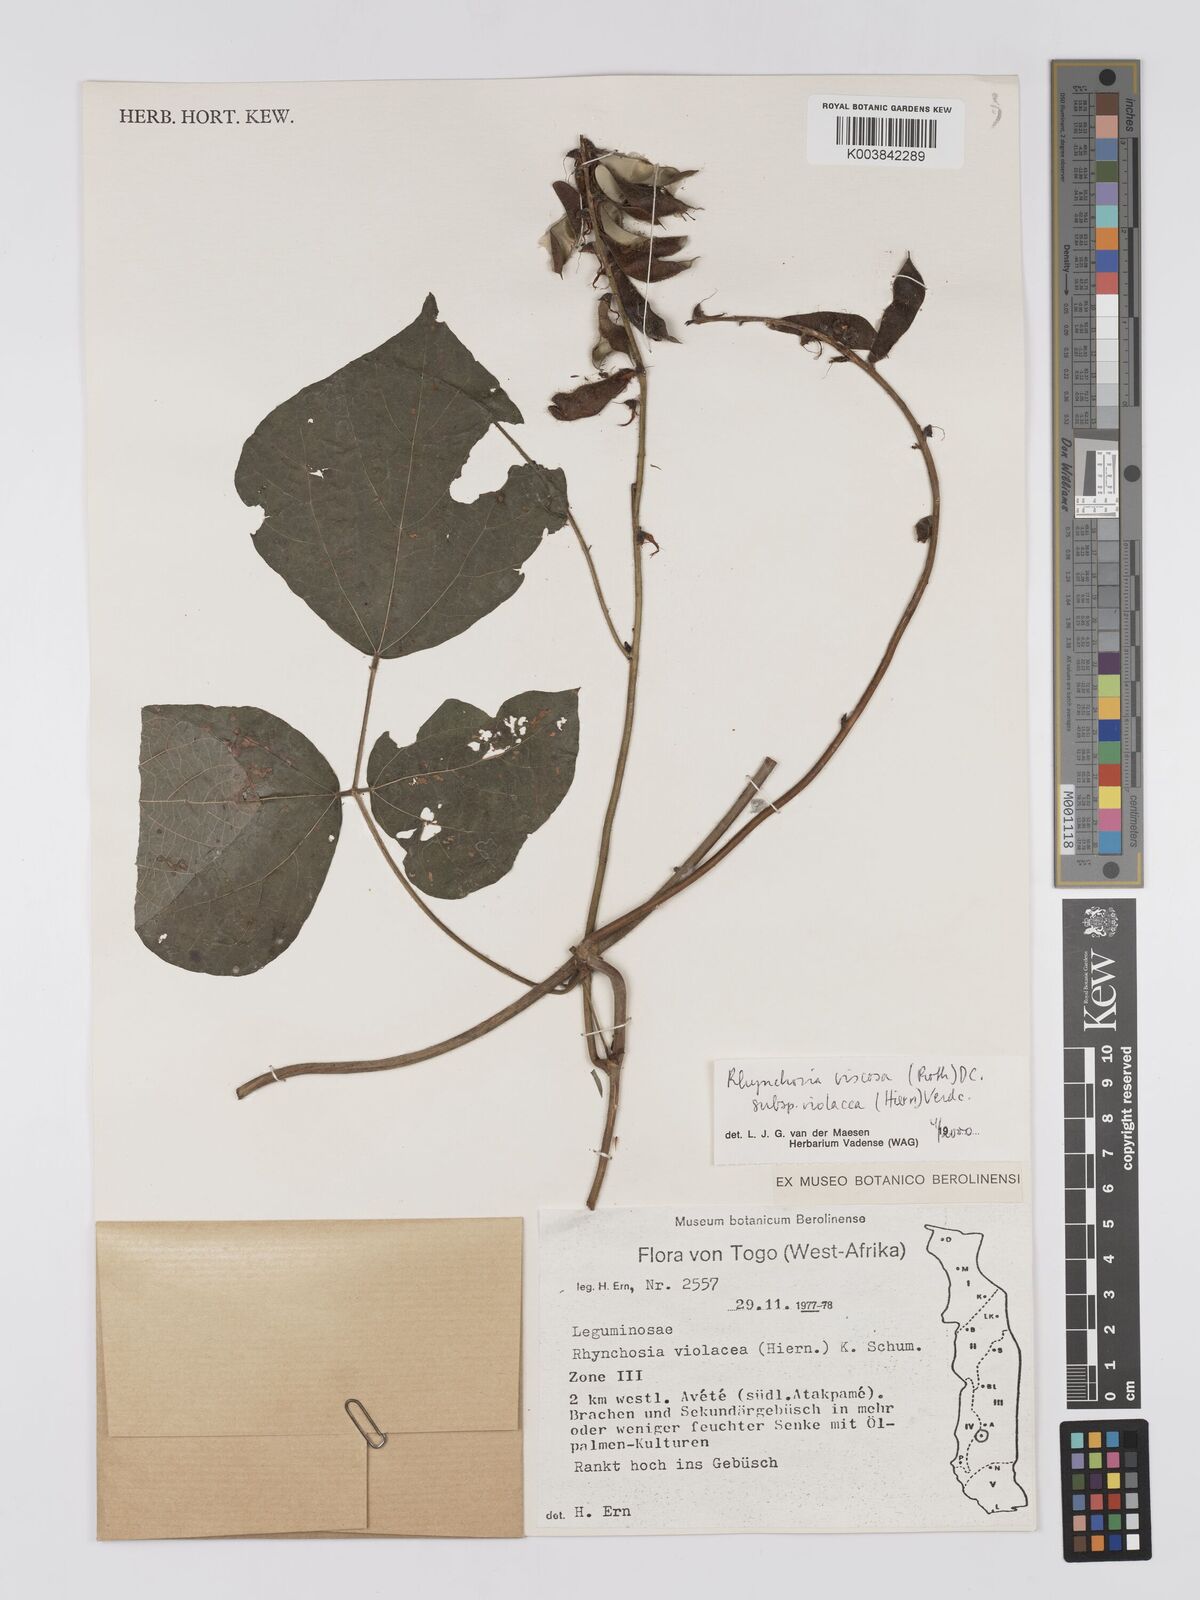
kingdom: Plantae
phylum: Tracheophyta
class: Magnoliopsida
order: Fabales
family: Fabaceae
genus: Rhynchosia
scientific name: Rhynchosia viscosa
